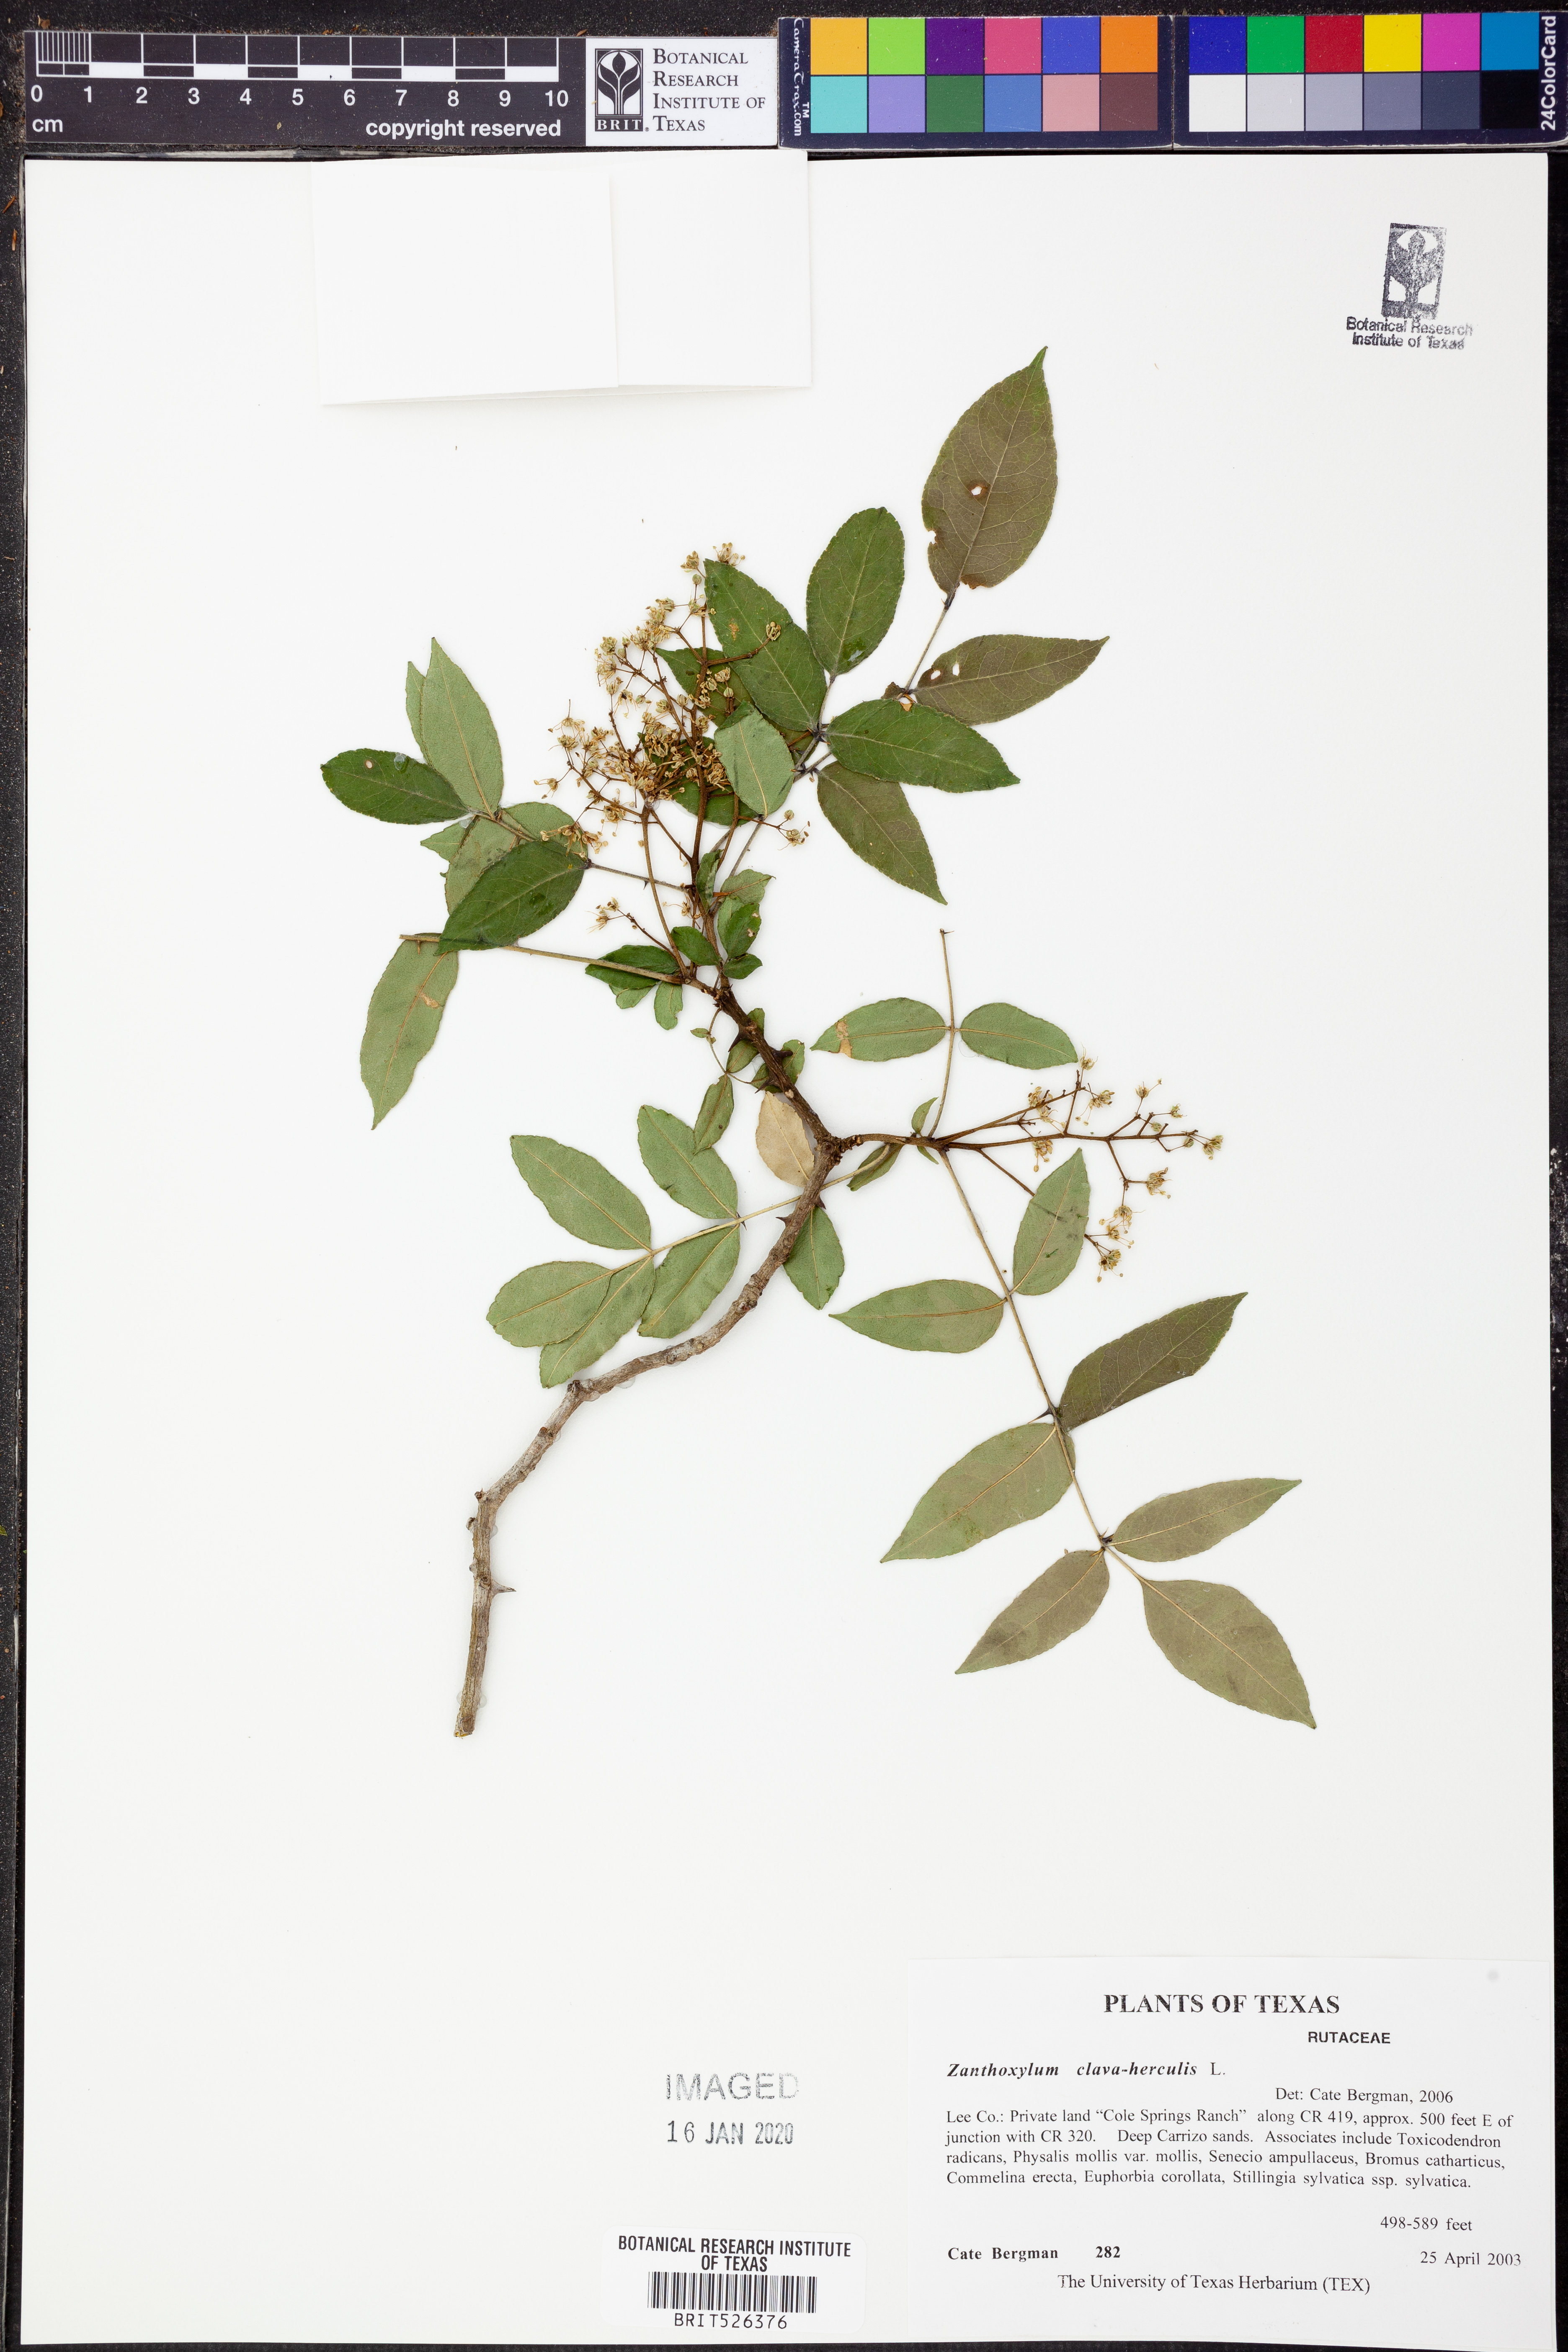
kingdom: Plantae
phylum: Tracheophyta
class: Magnoliopsida
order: Sapindales
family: Rutaceae
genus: Zanthoxylum
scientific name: Zanthoxylum avicennae
